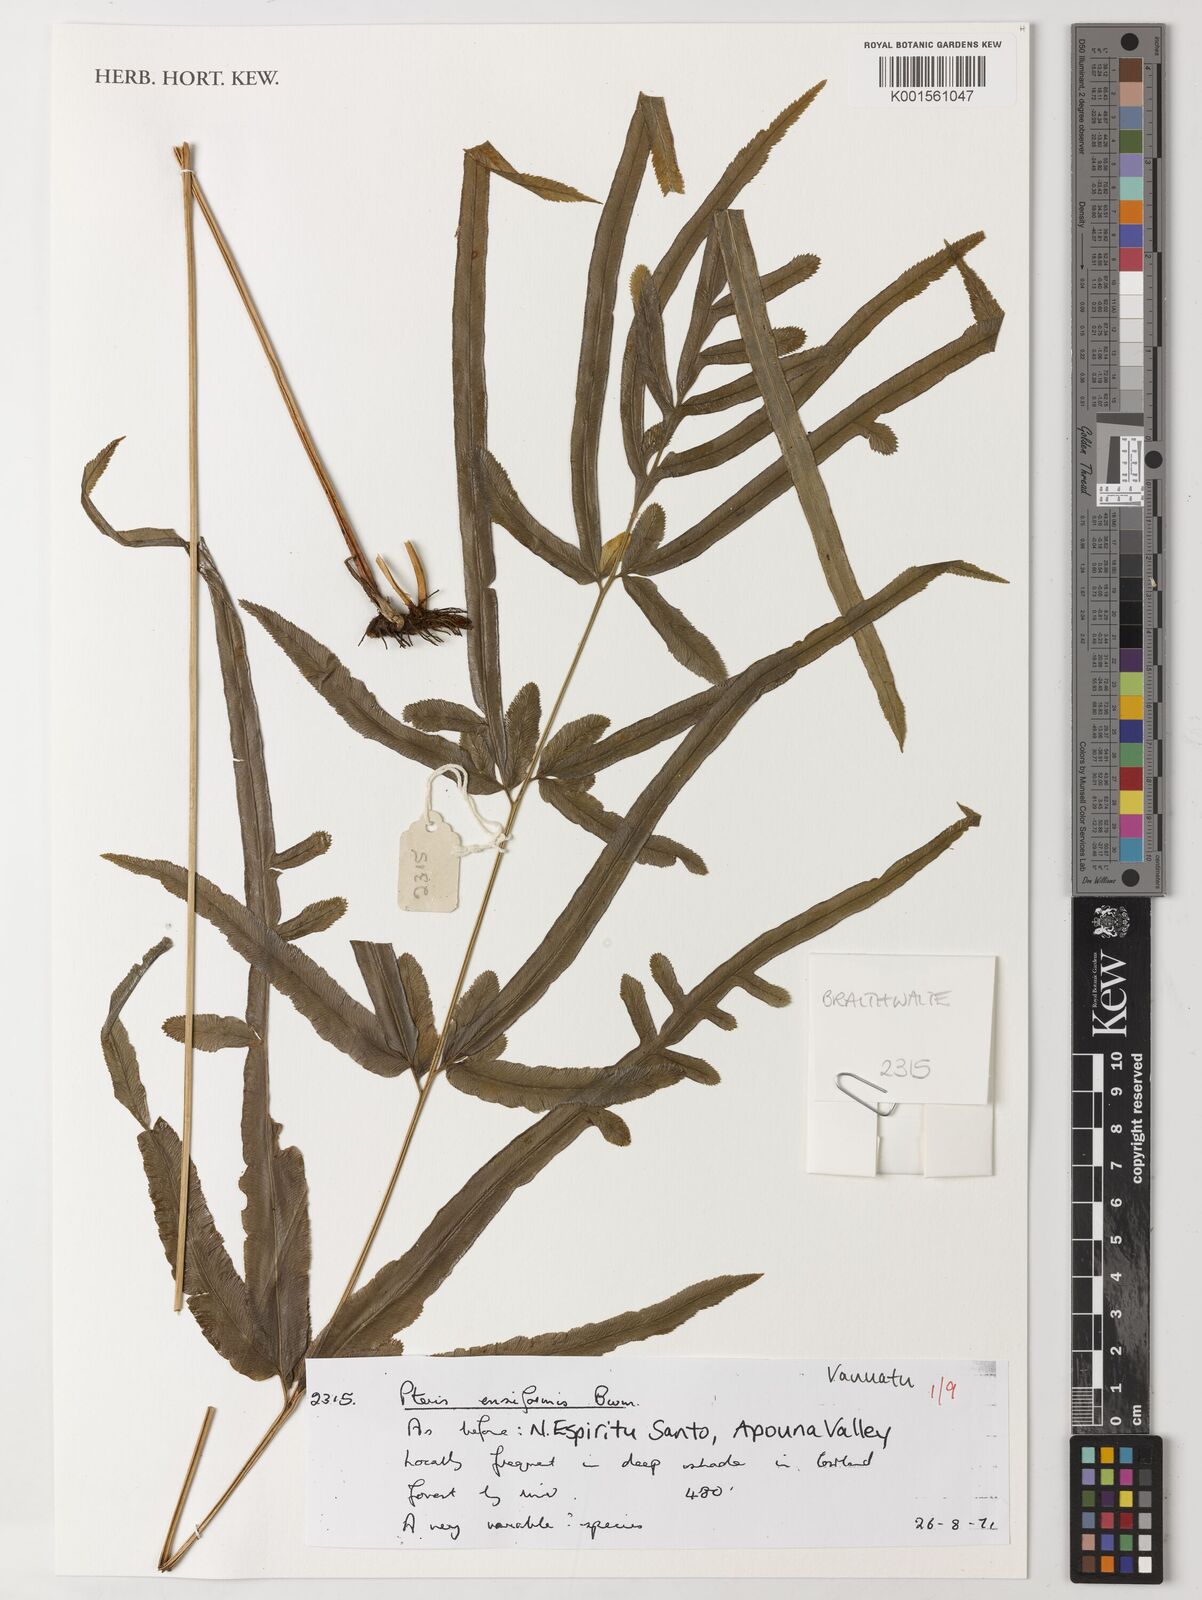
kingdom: Plantae
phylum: Tracheophyta
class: Polypodiopsida
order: Polypodiales
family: Pteridaceae
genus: Pteris
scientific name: Pteris ensiformis
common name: Sword brake
